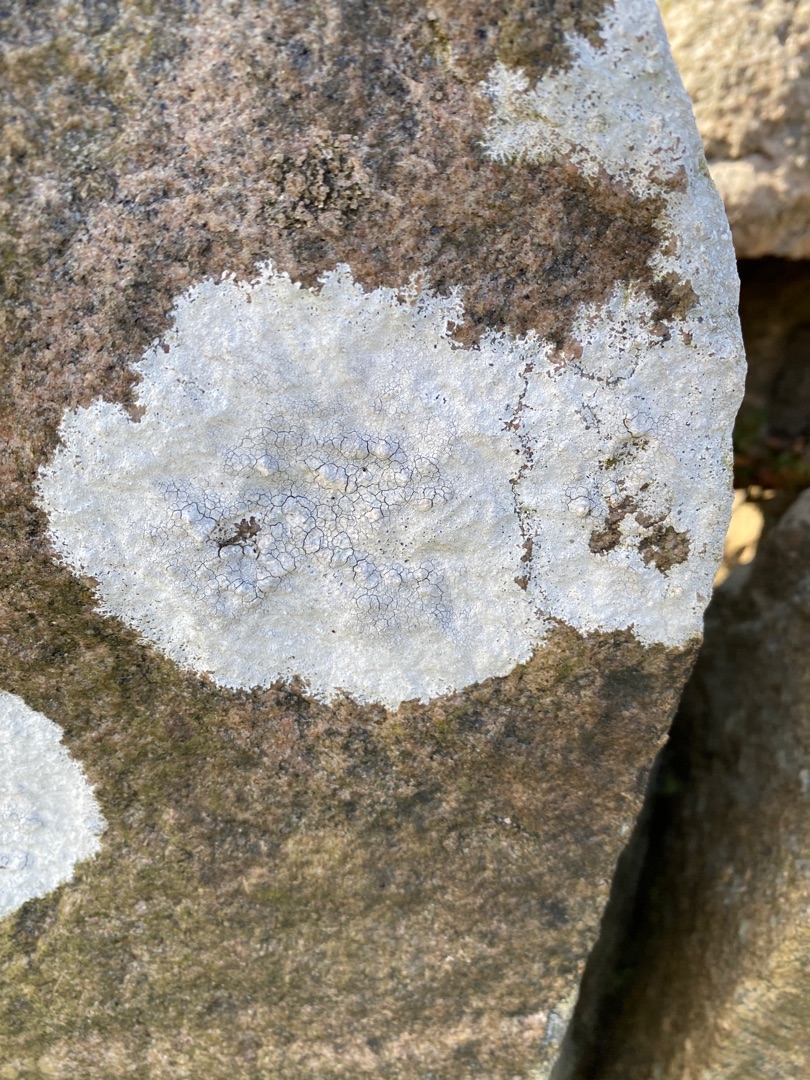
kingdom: Fungi
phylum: Ascomycota
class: Lecanoromycetes
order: Lecanorales
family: Lecanoraceae
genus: Glaucomaria
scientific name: Glaucomaria rupicola
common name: Stengærde-kantskivelav
